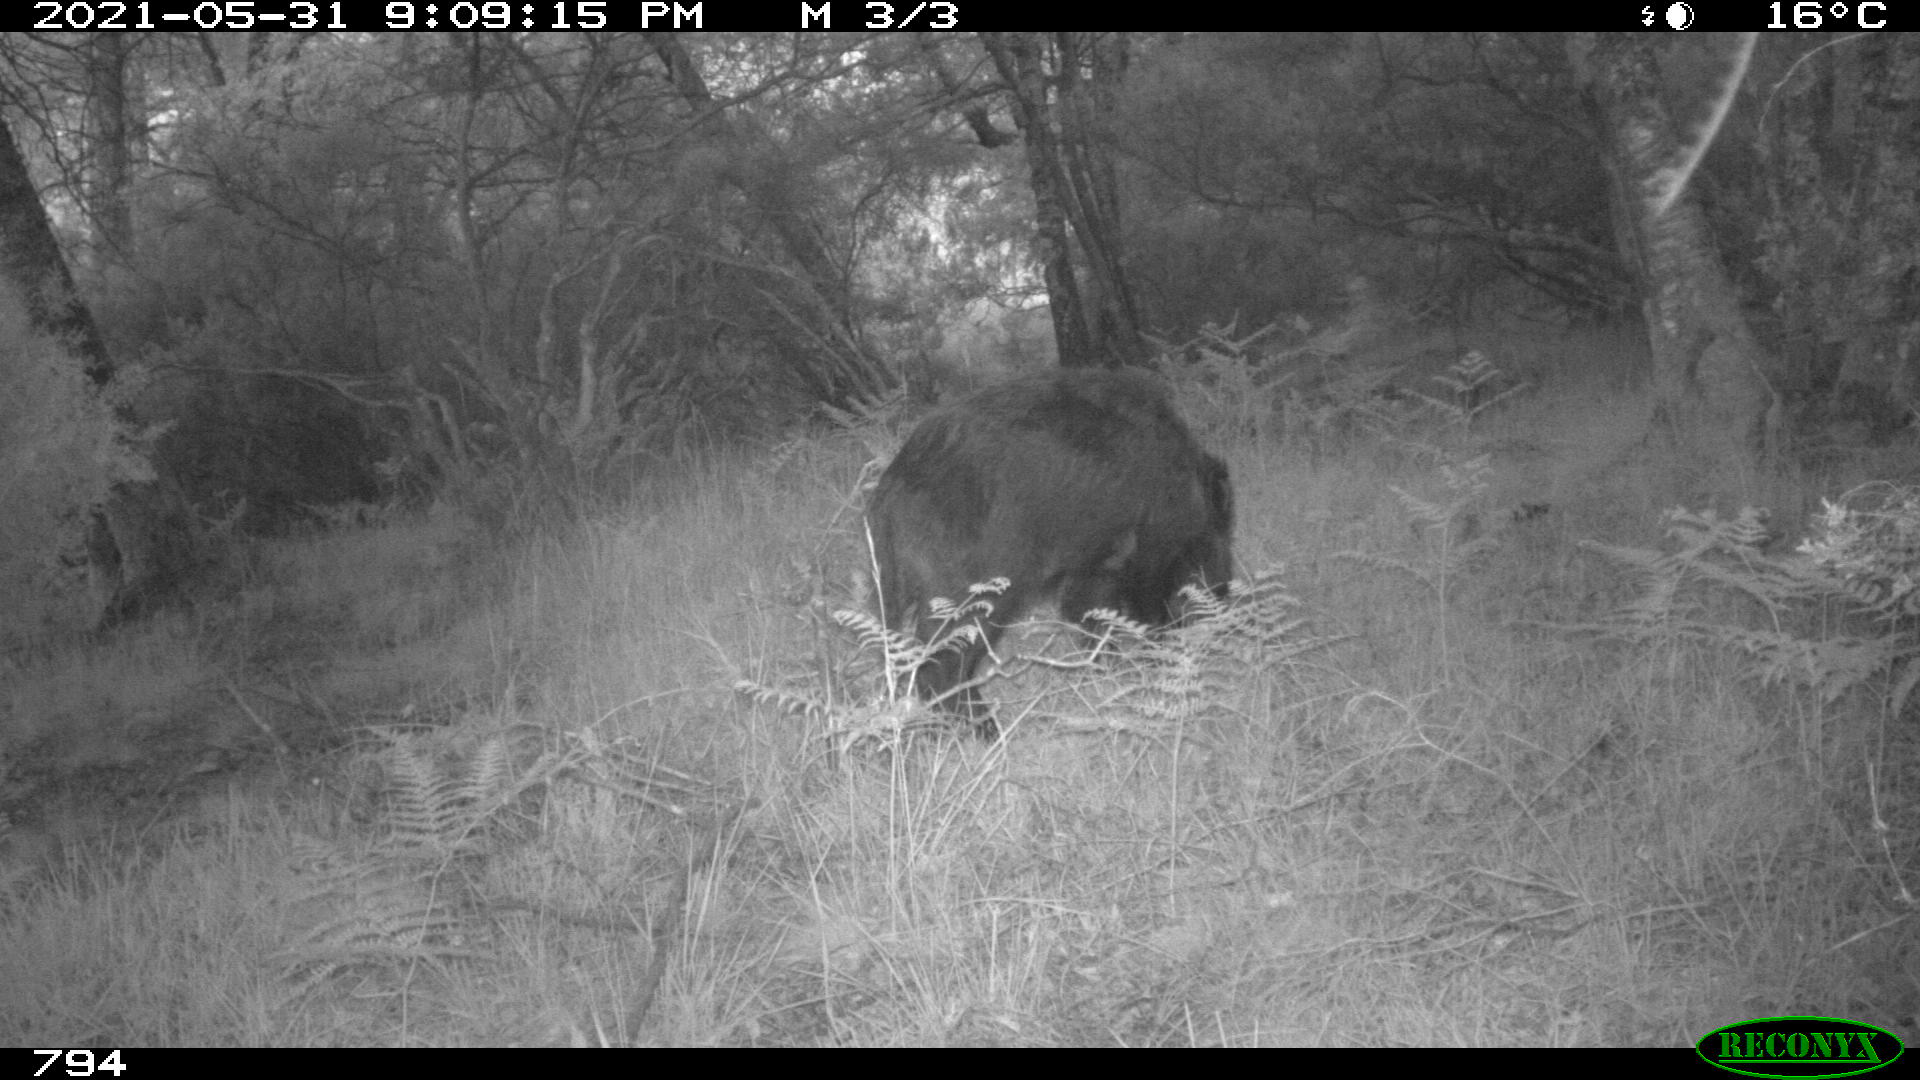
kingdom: Animalia
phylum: Chordata
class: Mammalia
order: Artiodactyla
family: Suidae
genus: Sus
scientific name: Sus scrofa
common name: Wild boar
